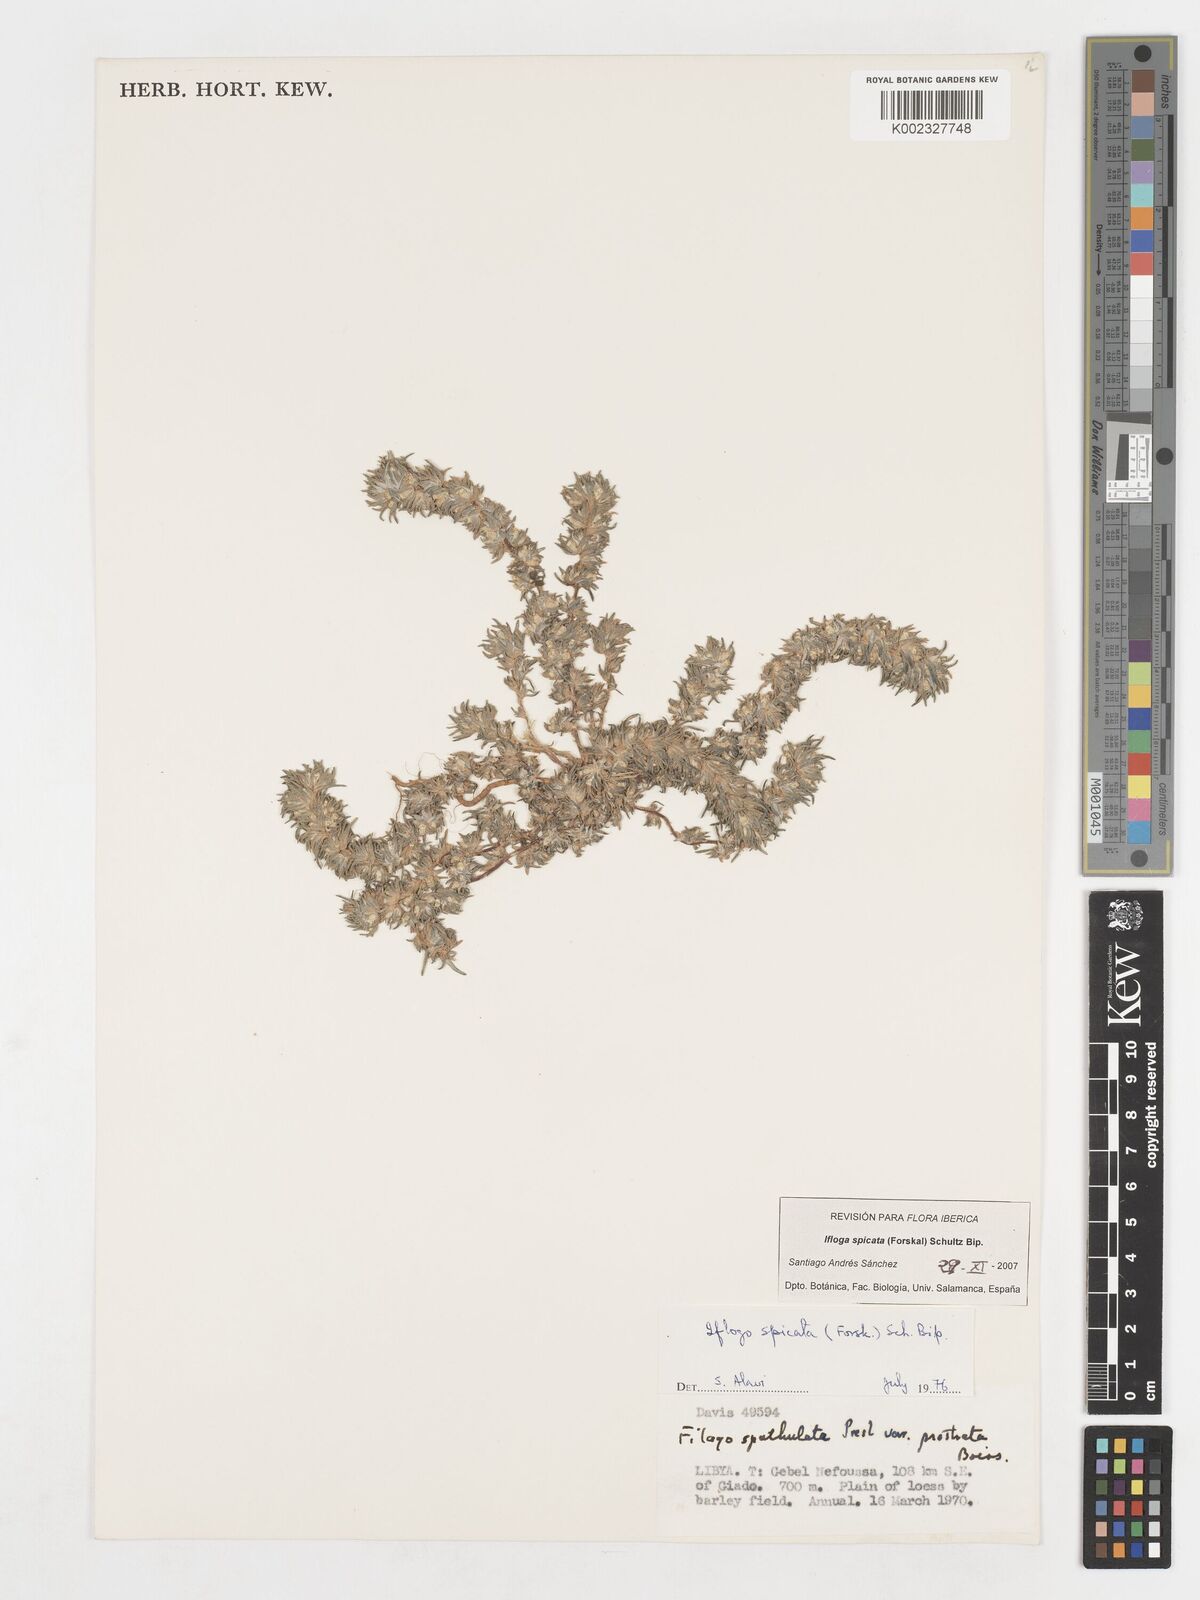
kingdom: Plantae
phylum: Tracheophyta
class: Magnoliopsida
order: Asterales
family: Asteraceae
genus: Ifloga
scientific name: Ifloga spicata
